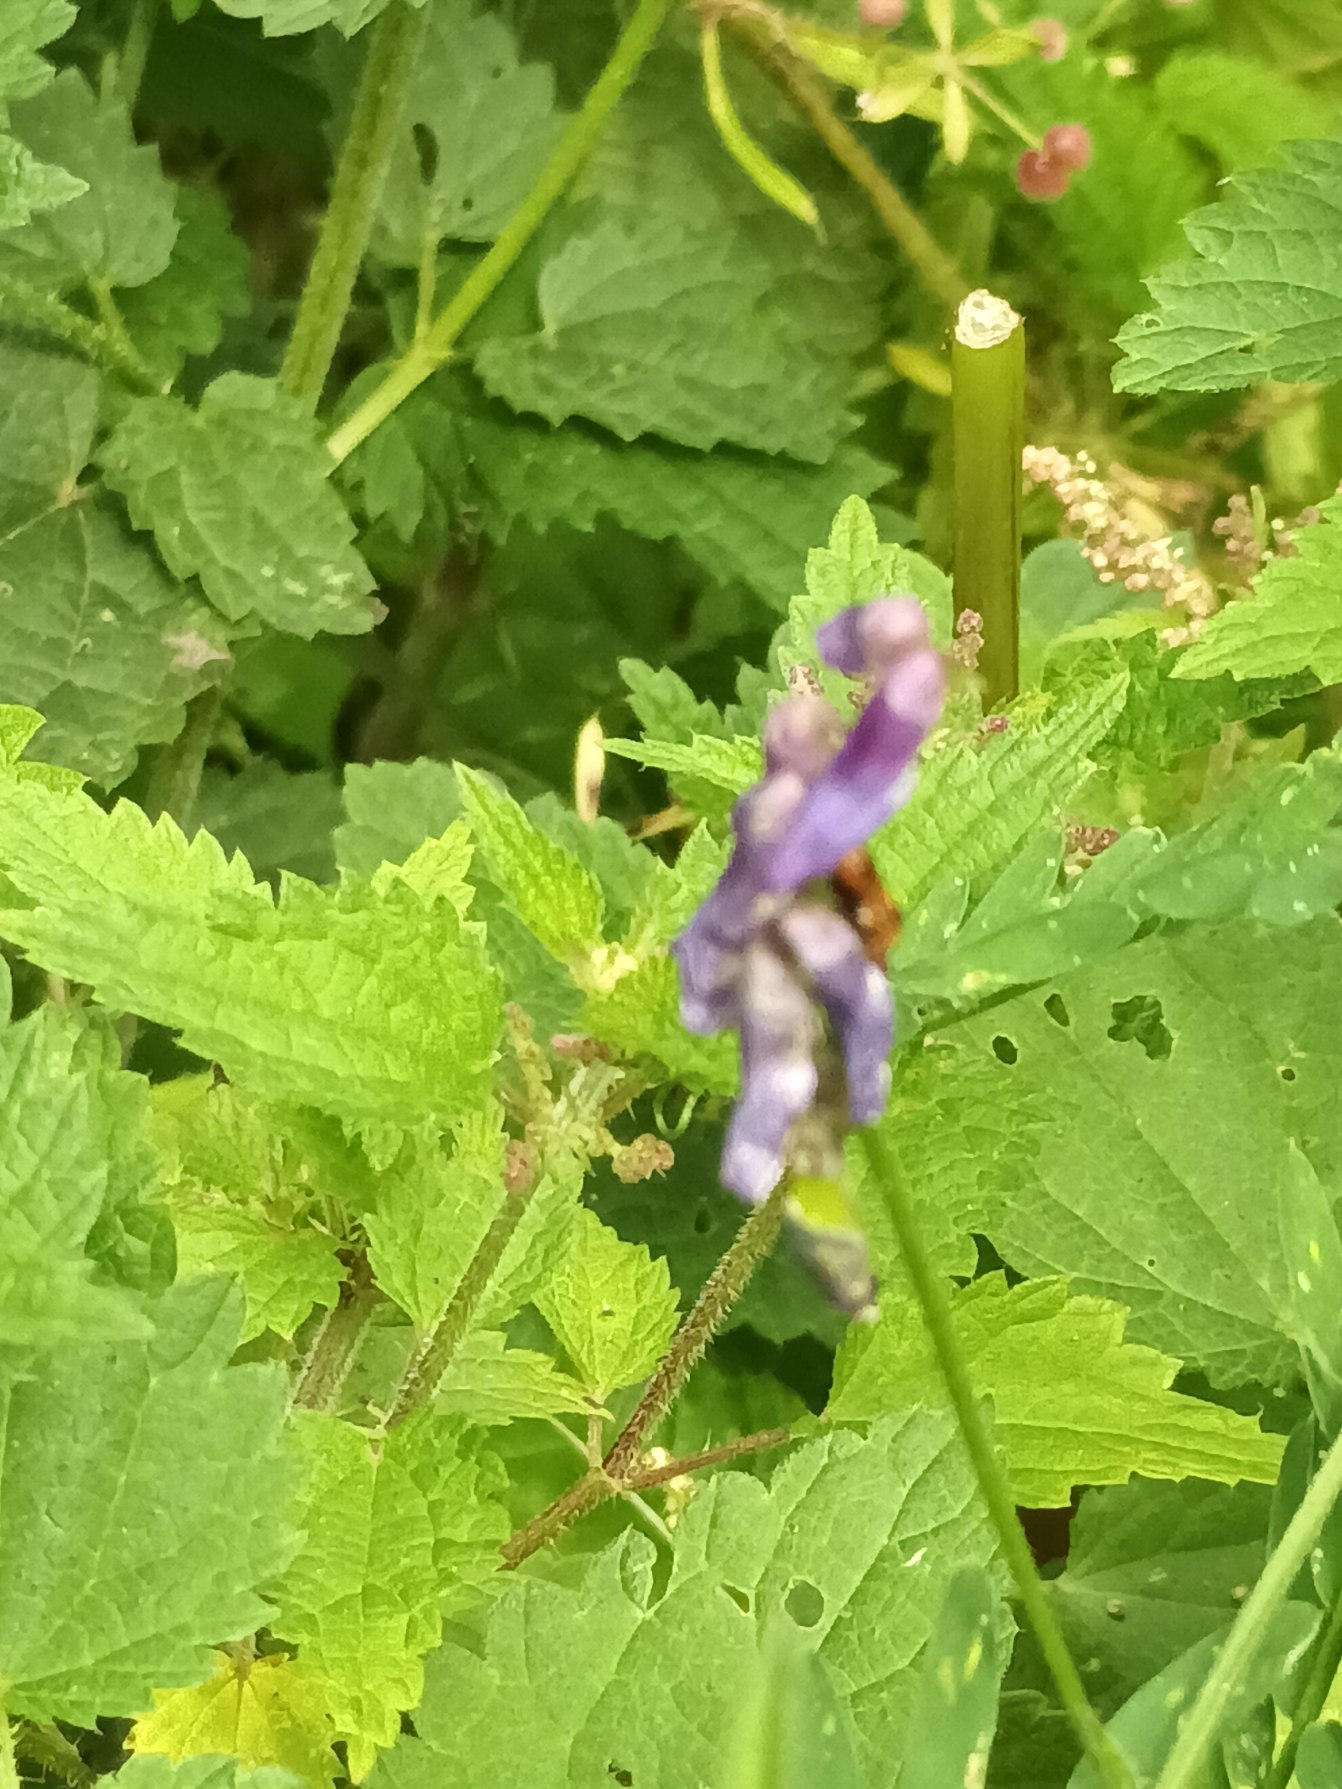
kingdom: Plantae
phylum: Tracheophyta
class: Magnoliopsida
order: Fabales
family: Fabaceae
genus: Vicia
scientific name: Vicia cracca
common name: Muse-vikke
